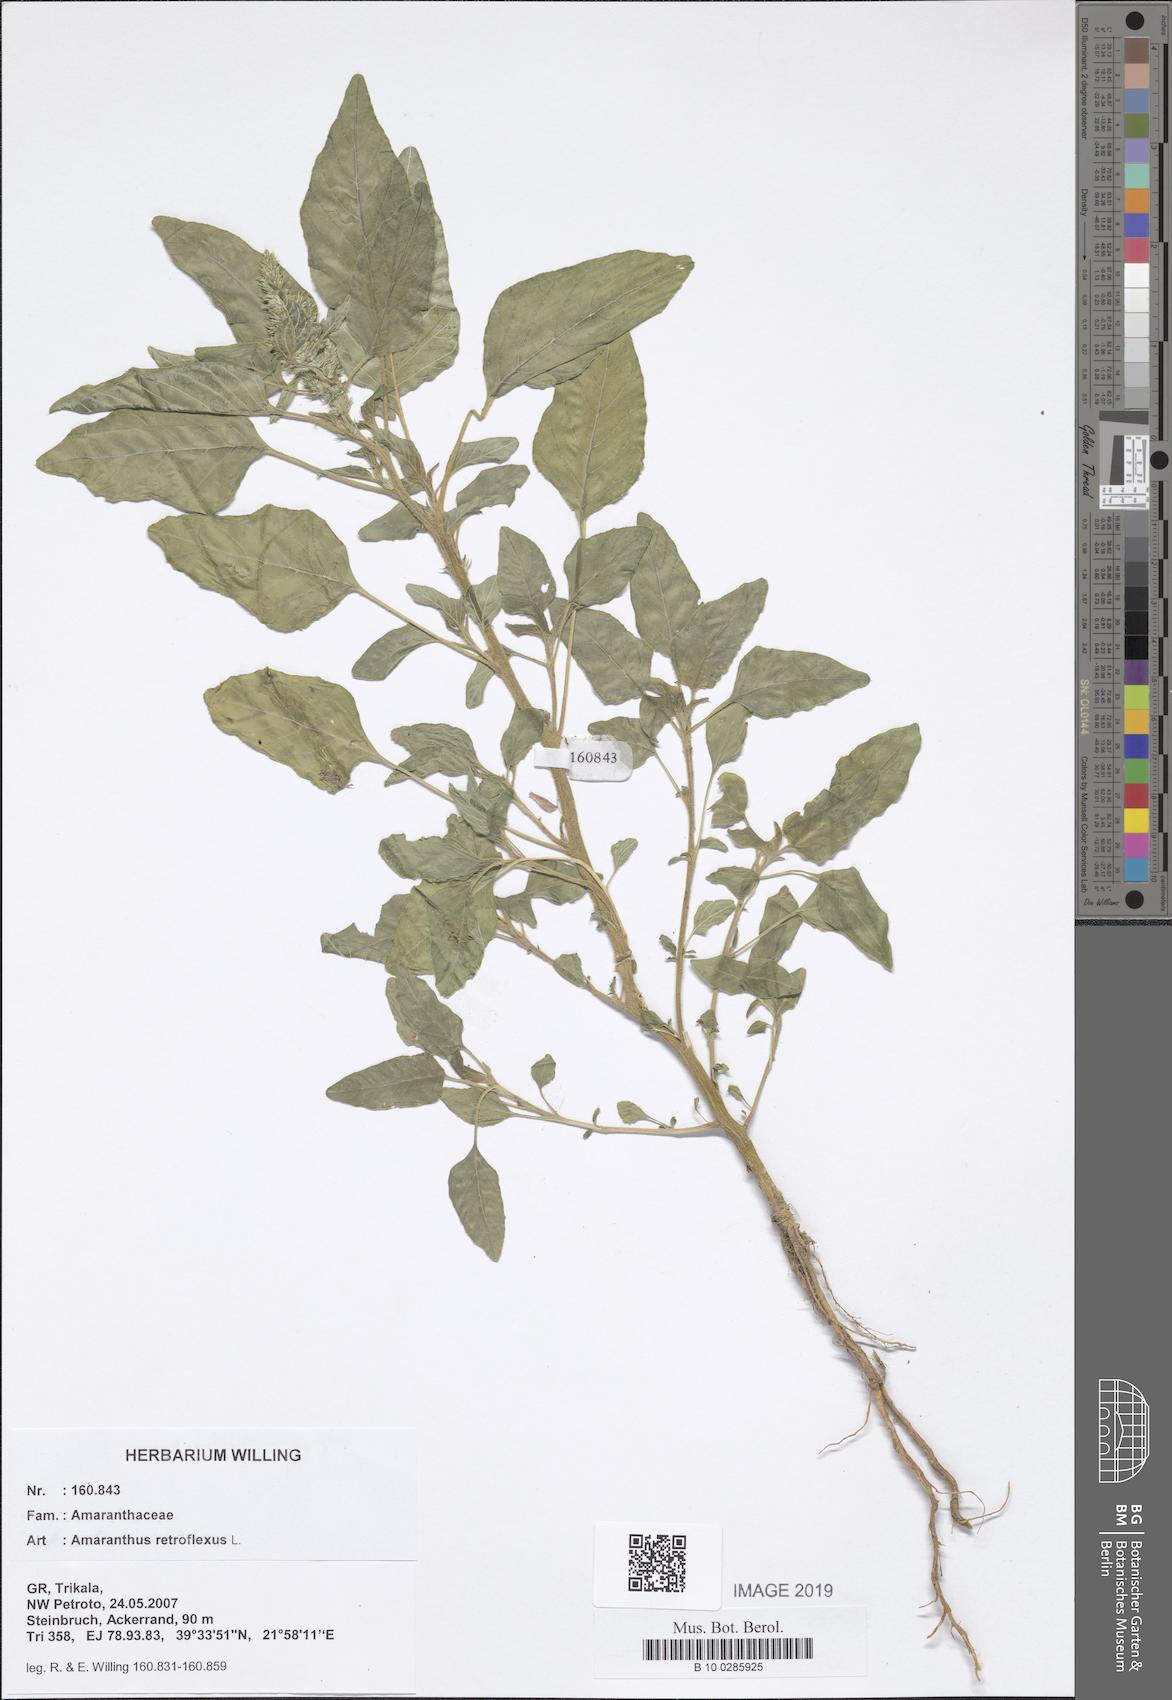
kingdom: Plantae
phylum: Tracheophyta
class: Magnoliopsida
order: Caryophyllales
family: Amaranthaceae
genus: Amaranthus
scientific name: Amaranthus retroflexus
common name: Redroot amaranth
